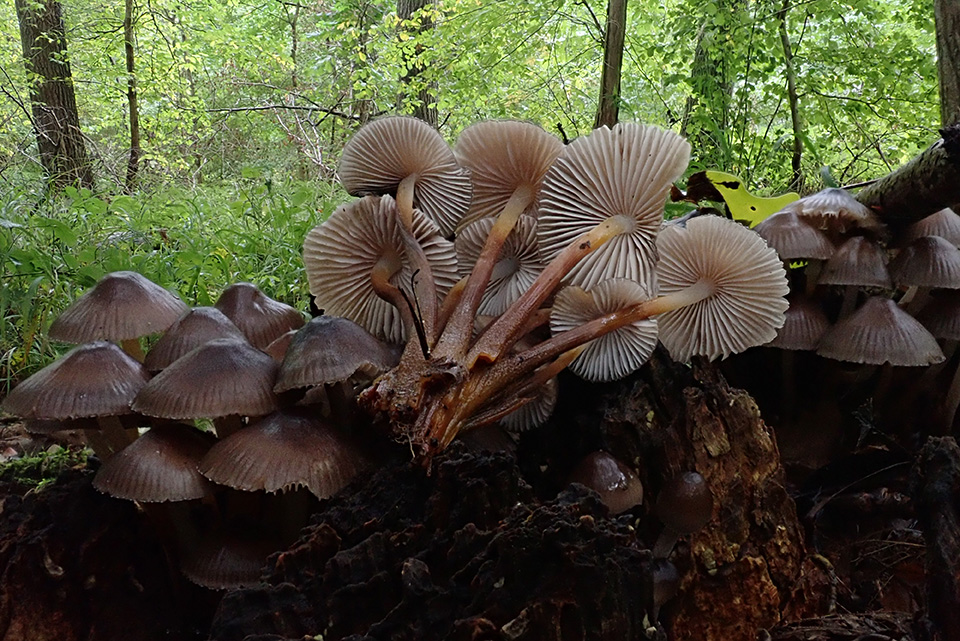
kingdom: Fungi
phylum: Basidiomycota
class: Agaricomycetes
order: Agaricales
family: Mycenaceae
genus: Mycena
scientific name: Mycena inclinata
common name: nikkende huesvamp
